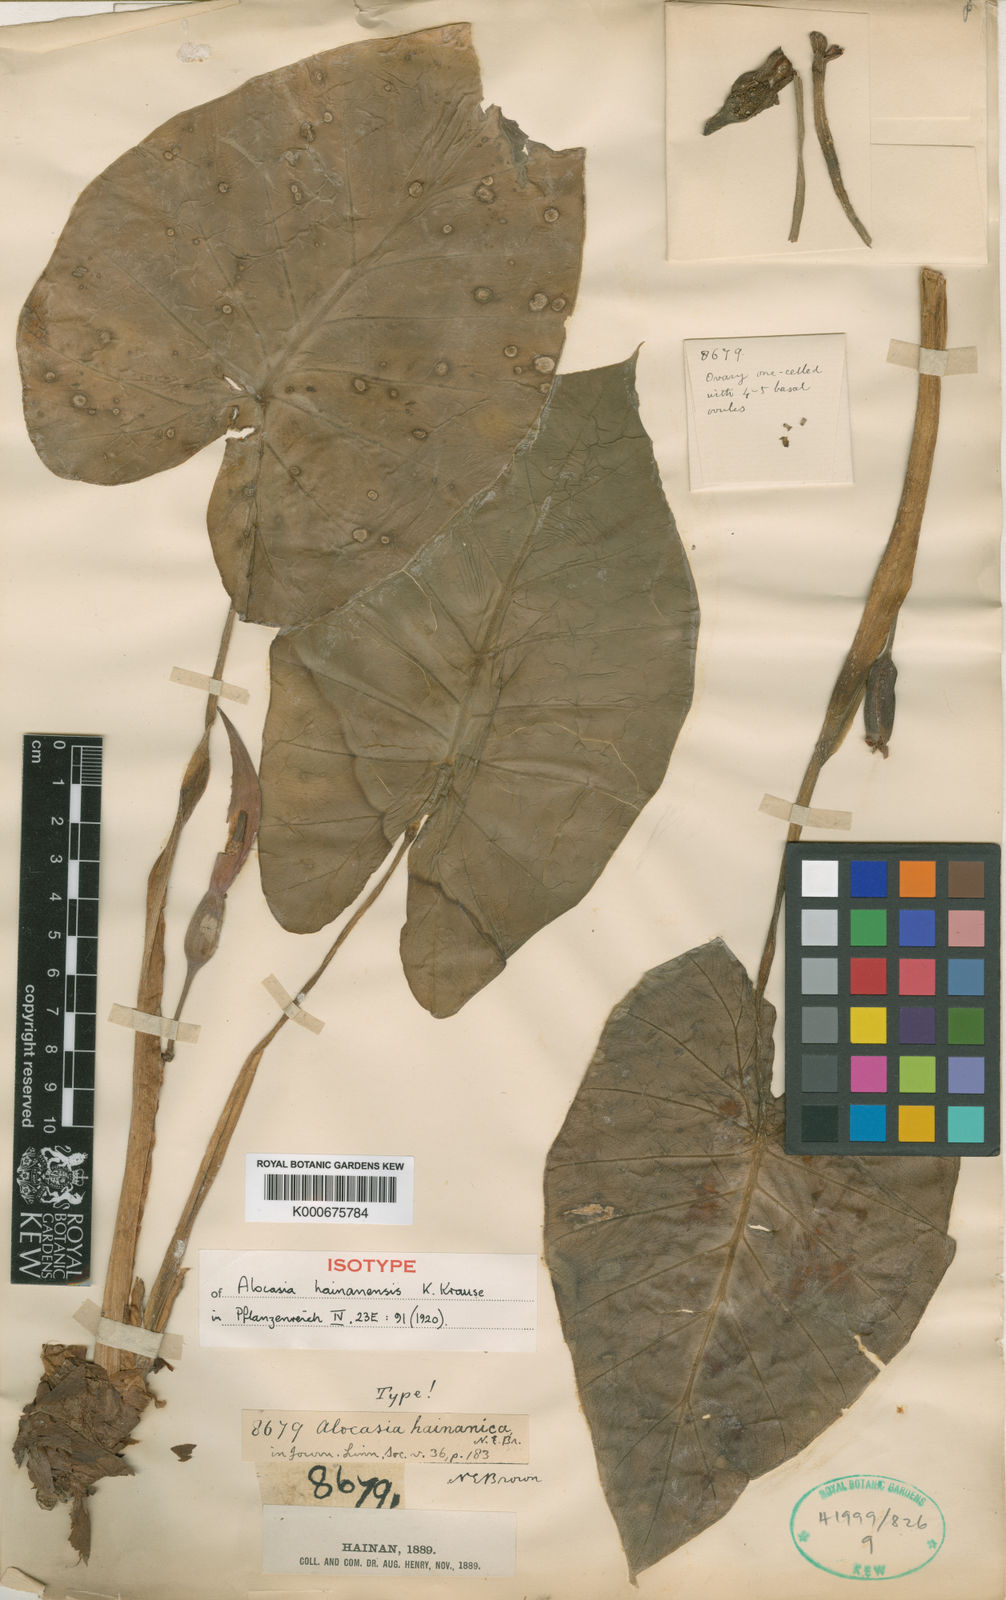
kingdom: Plantae
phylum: Tracheophyta
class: Liliopsida
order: Alismatales
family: Araceae
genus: Alocasia
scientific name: Alocasia hainanica
